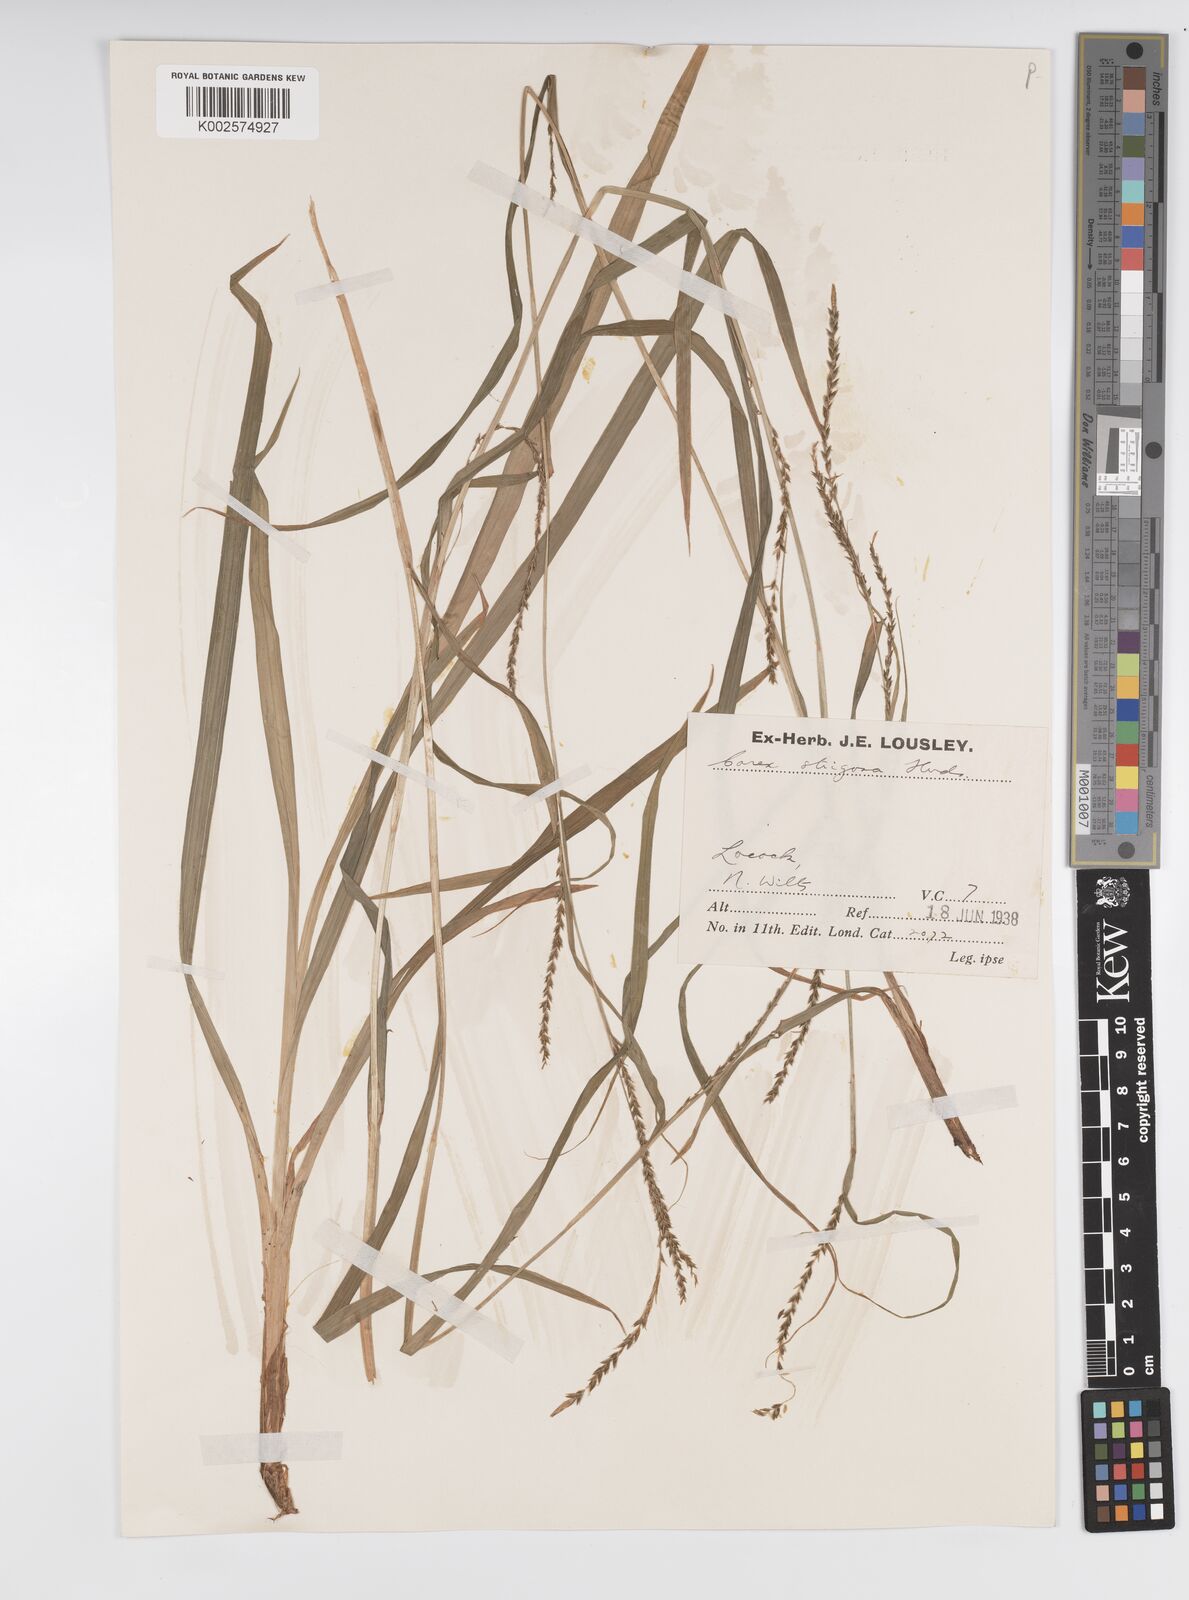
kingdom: Plantae
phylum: Tracheophyta
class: Liliopsida
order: Poales
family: Cyperaceae
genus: Carex
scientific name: Carex strigosa
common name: Thin-spiked wood-sedge
